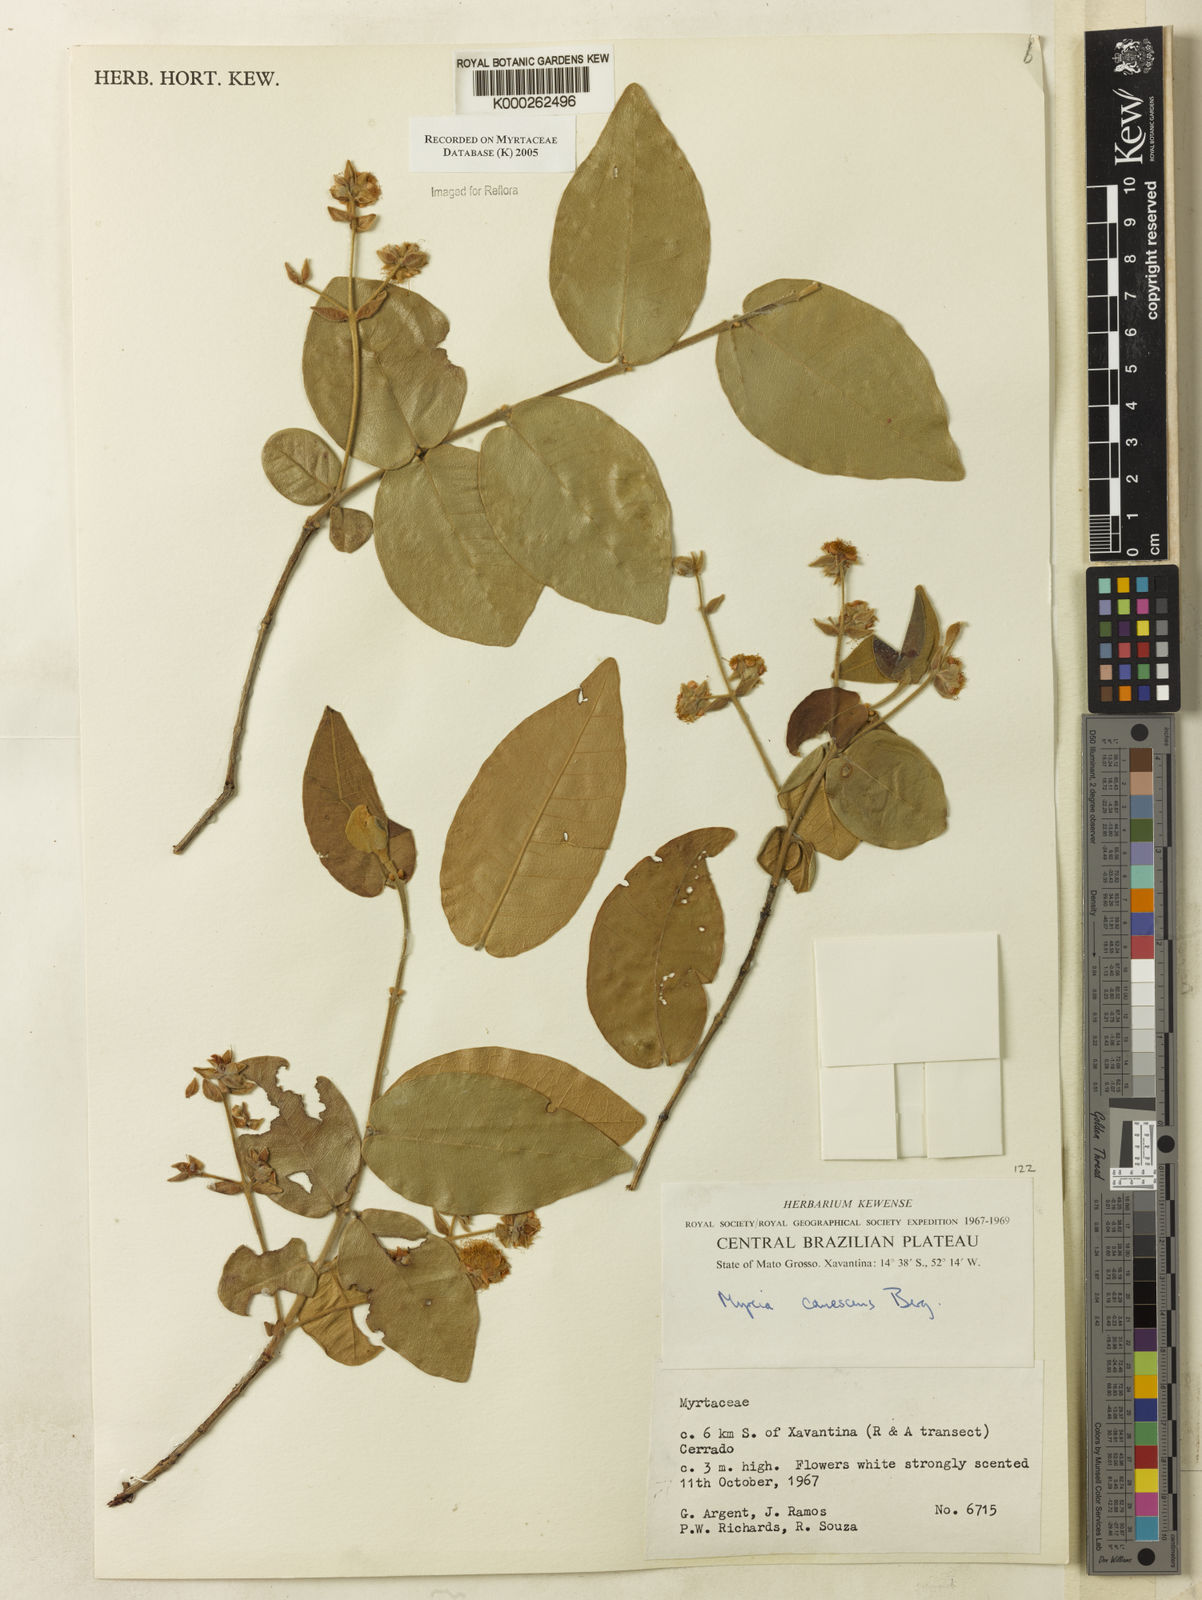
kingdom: Plantae
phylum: Tracheophyta
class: Magnoliopsida
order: Myrtales
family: Myrtaceae
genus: Myrcia
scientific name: Myrcia canescens
